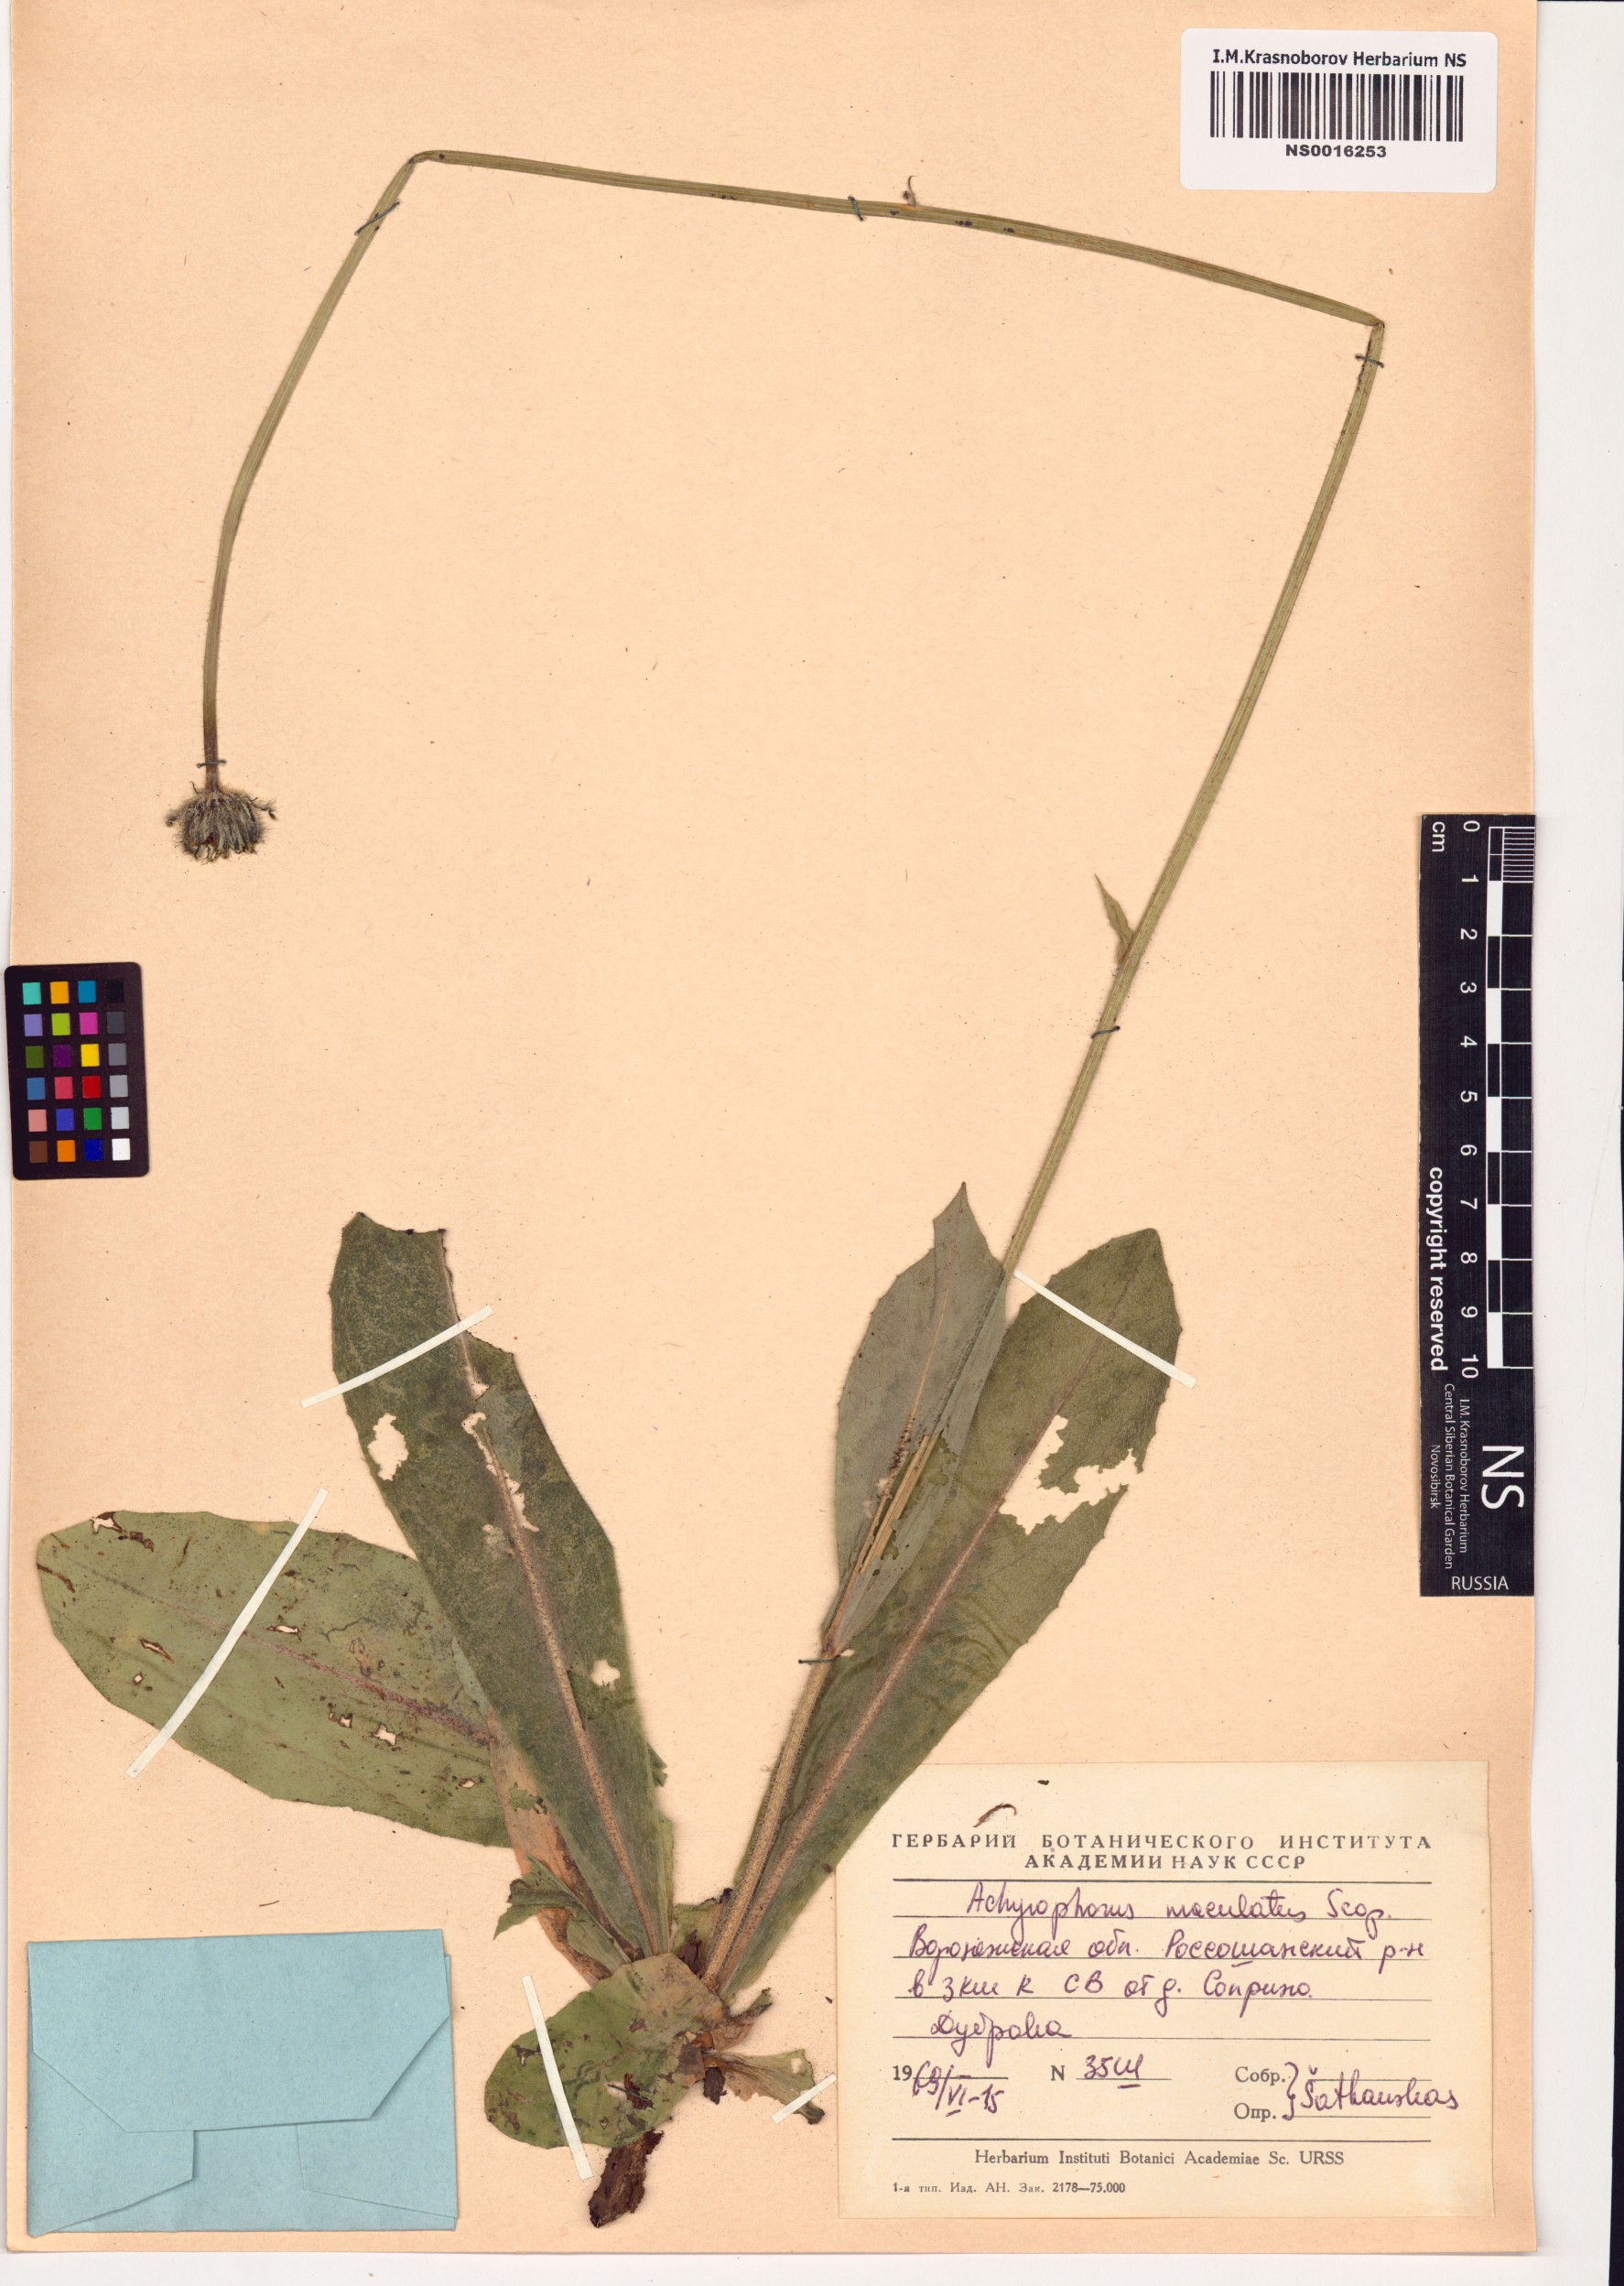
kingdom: Plantae
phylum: Tracheophyta
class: Magnoliopsida
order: Asterales
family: Asteraceae
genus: Trommsdorffia
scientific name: Trommsdorffia maculata
